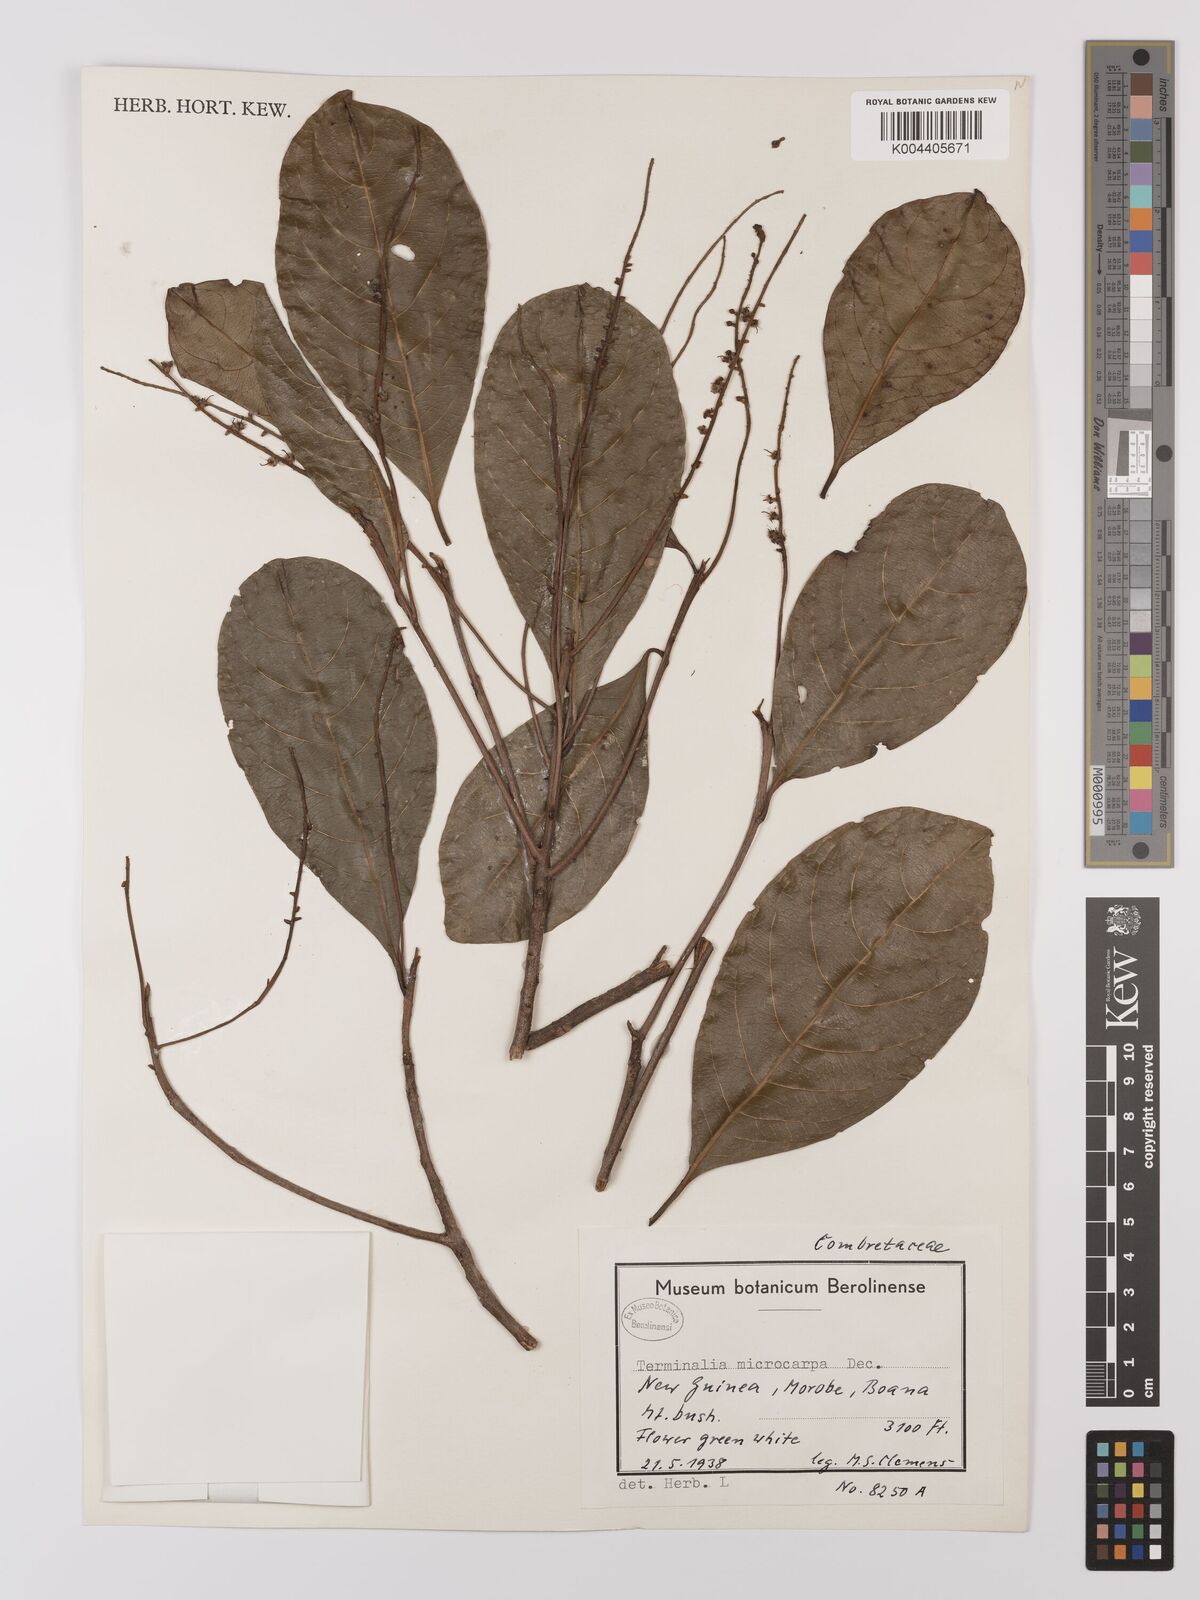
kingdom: Plantae
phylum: Tracheophyta
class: Magnoliopsida
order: Myrtales
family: Combretaceae
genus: Terminalia
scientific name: Terminalia
